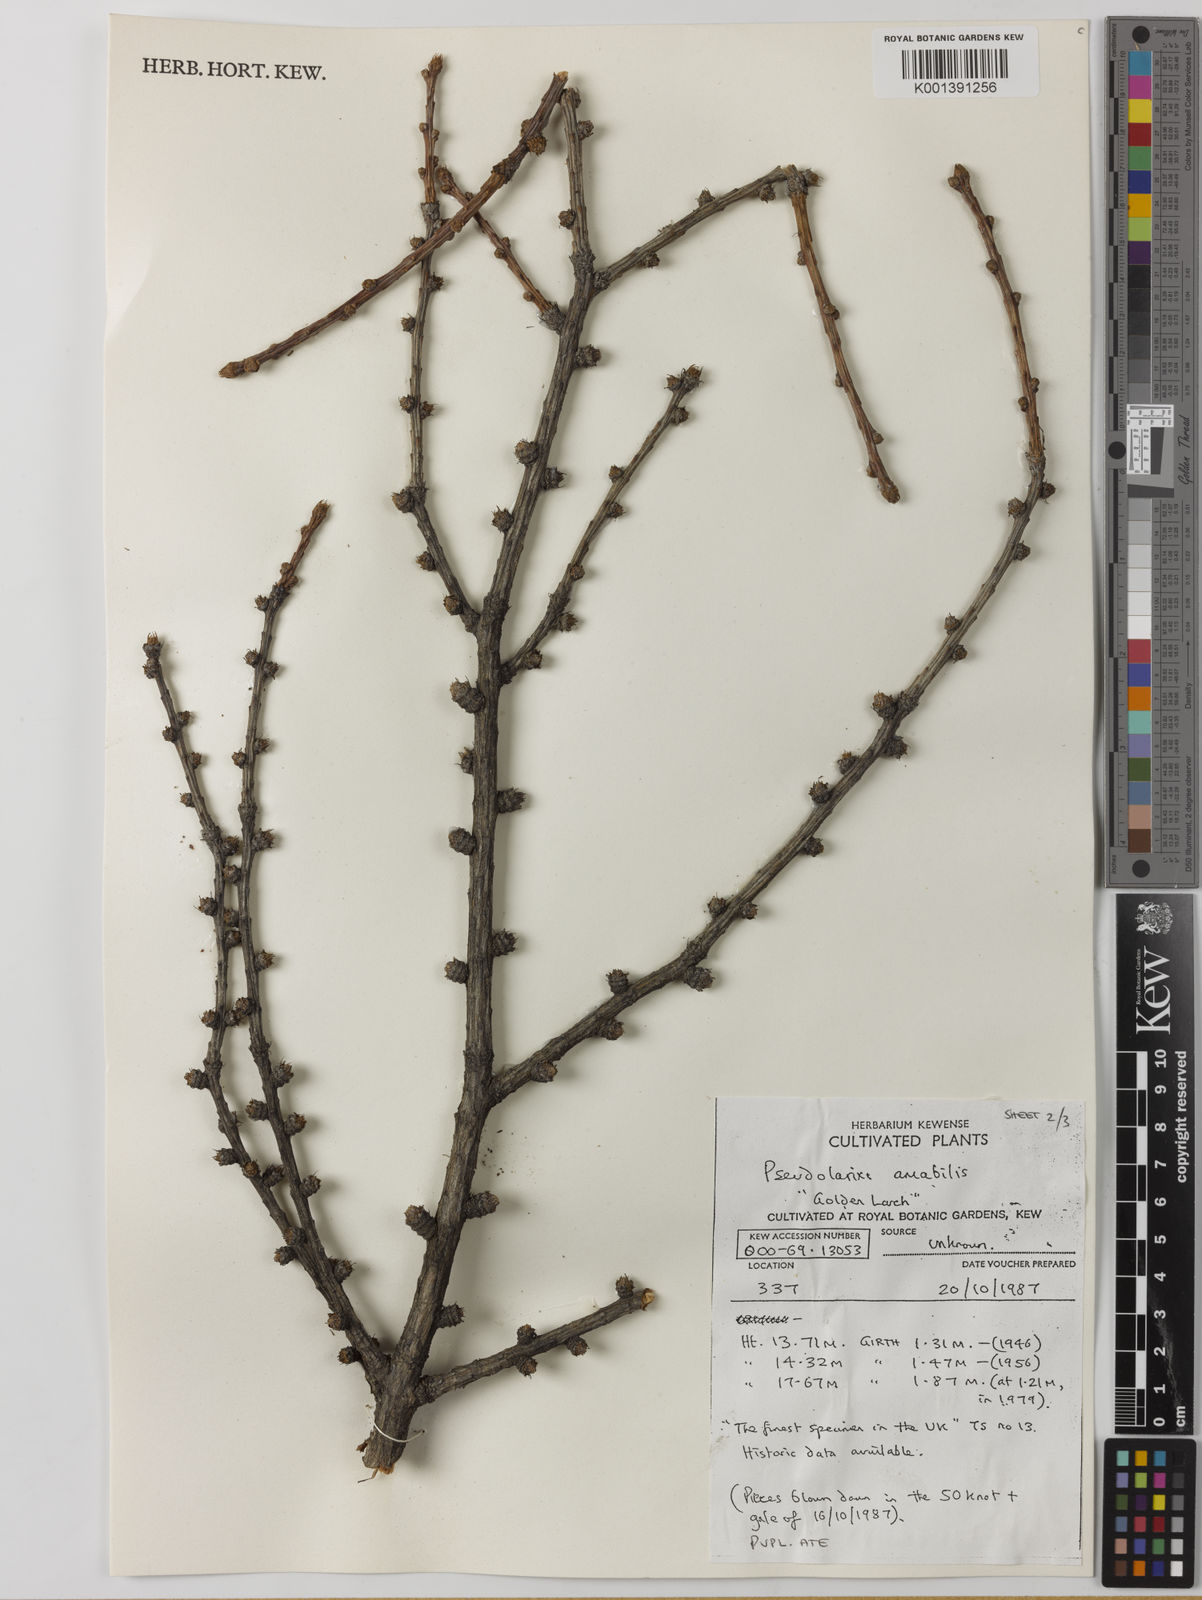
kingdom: Plantae
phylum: Tracheophyta
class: Pinopsida
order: Pinales
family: Pinaceae
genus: Pseudolarix
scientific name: Pseudolarix amabilis
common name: Chinese golden larch
